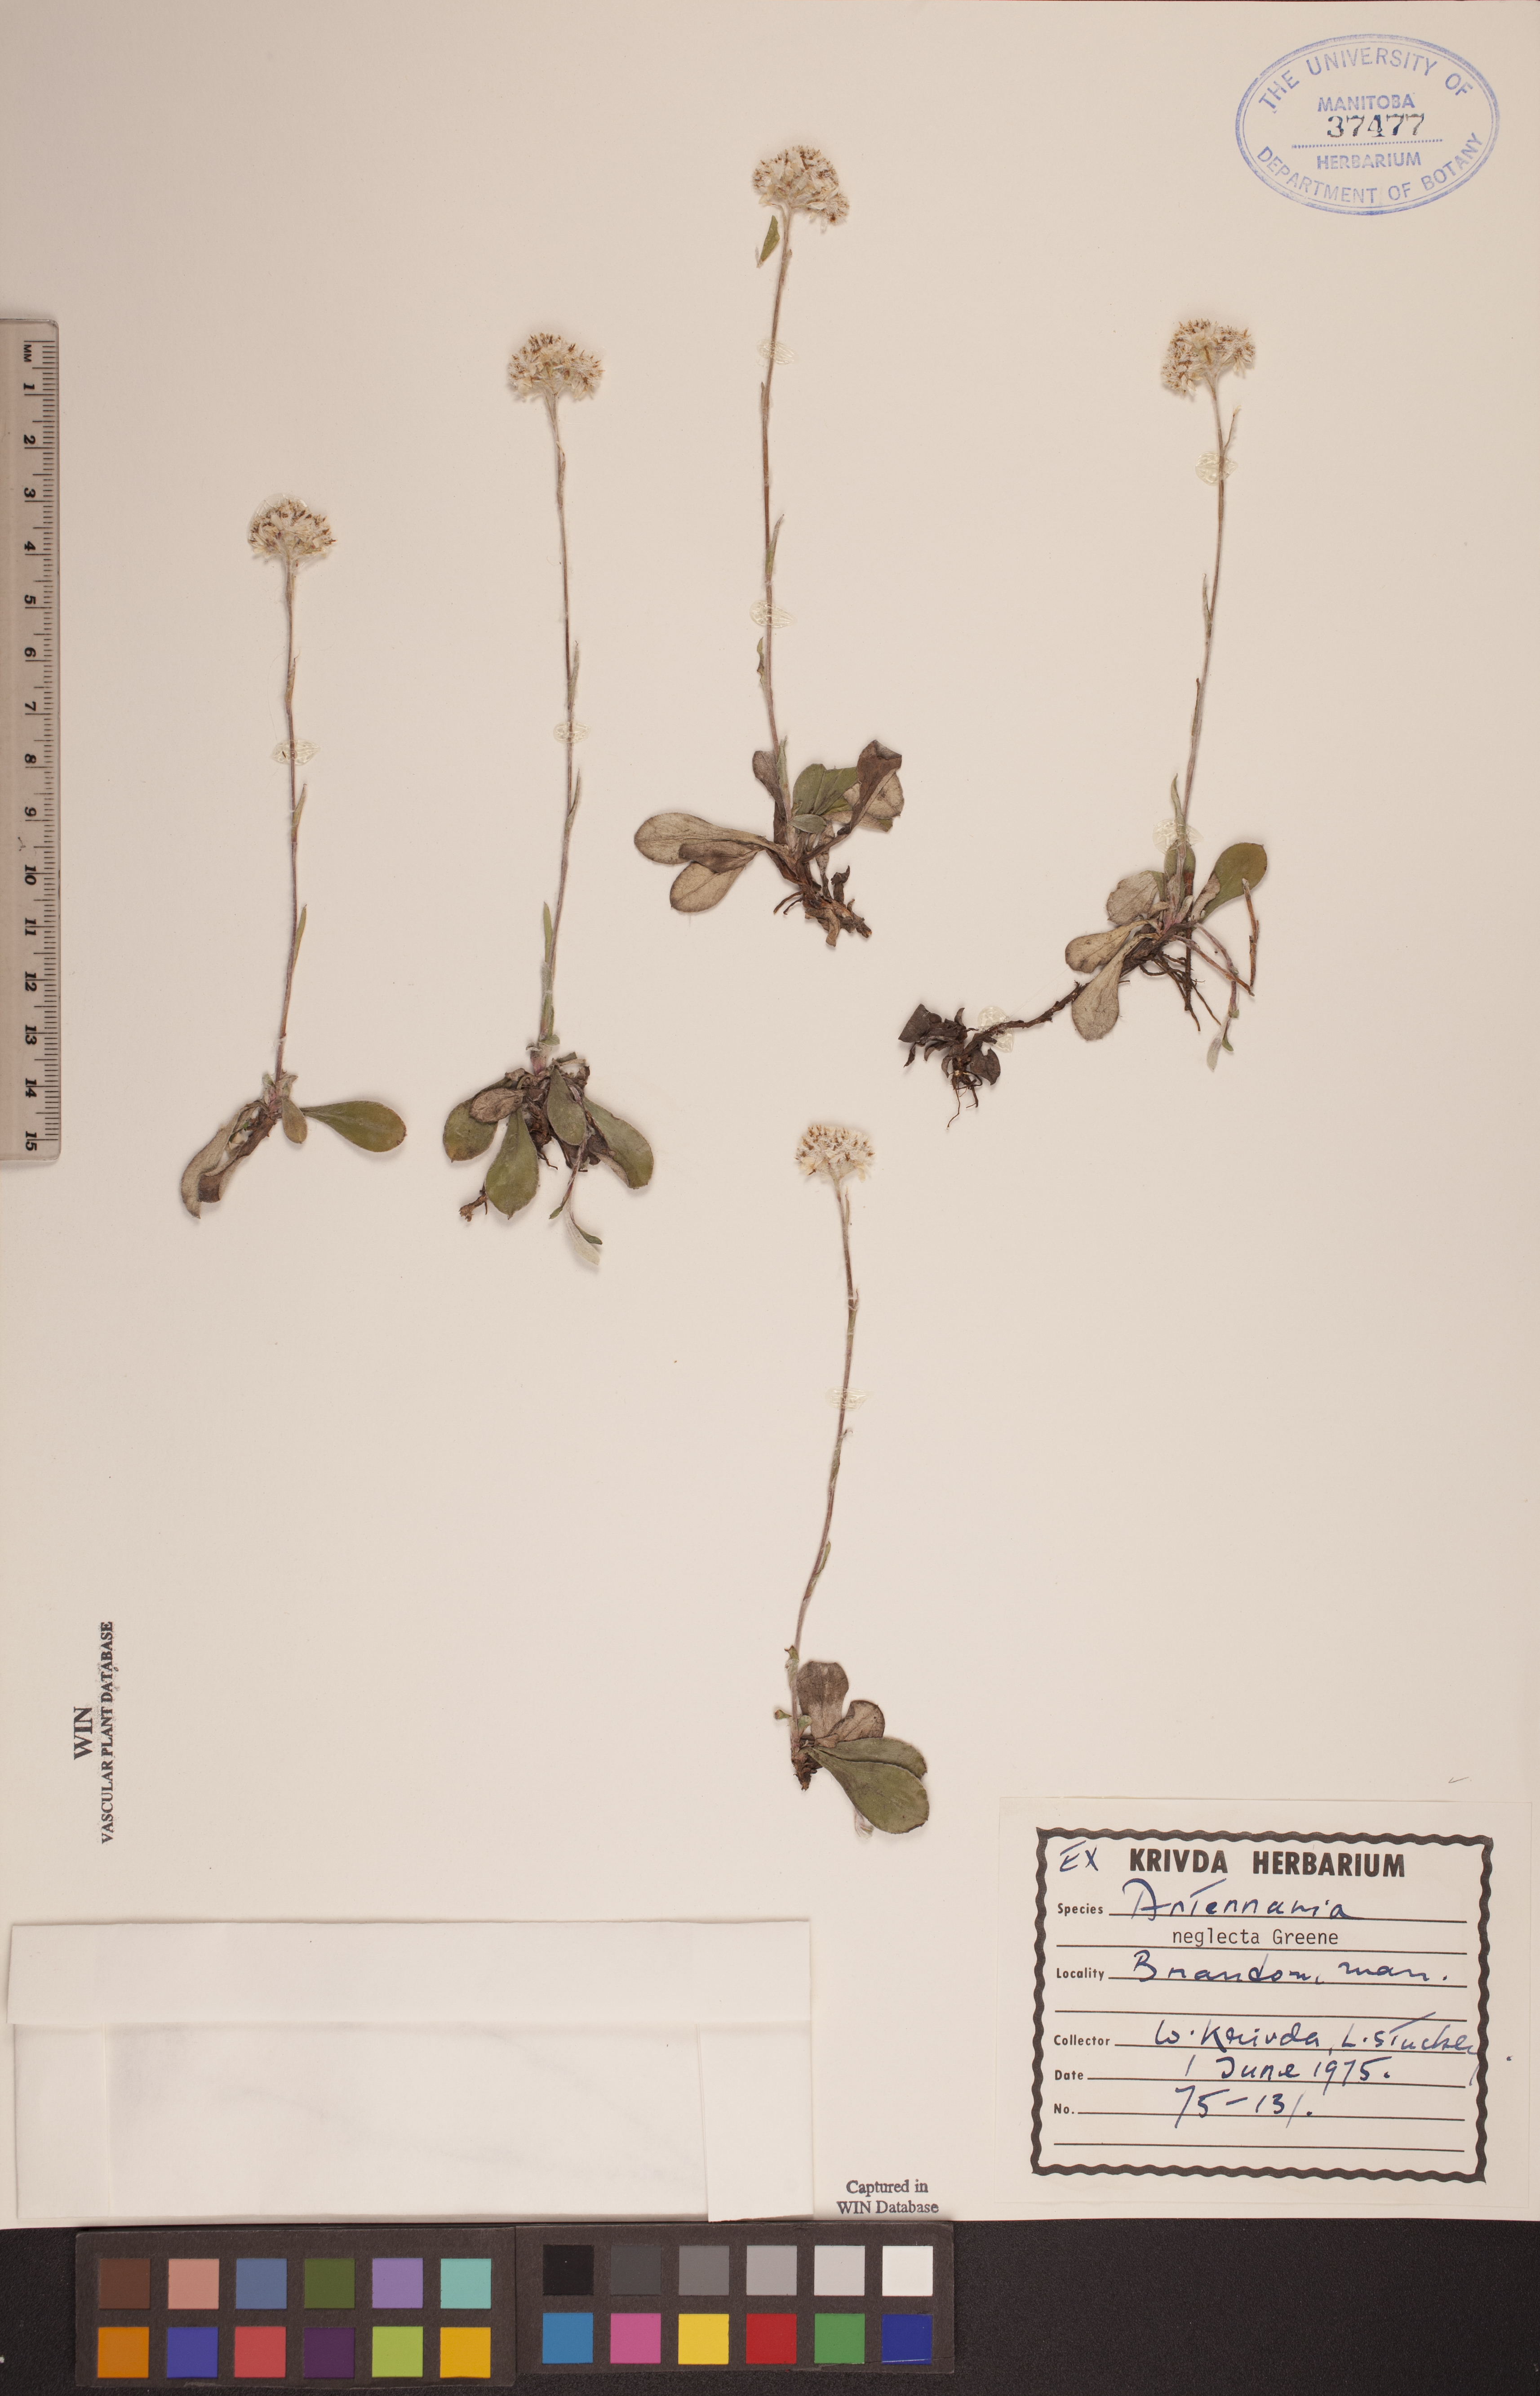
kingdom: Plantae
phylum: Tracheophyta
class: Magnoliopsida
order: Asterales
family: Asteraceae
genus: Antennaria
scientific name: Antennaria neglecta
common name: Field pussytoes
